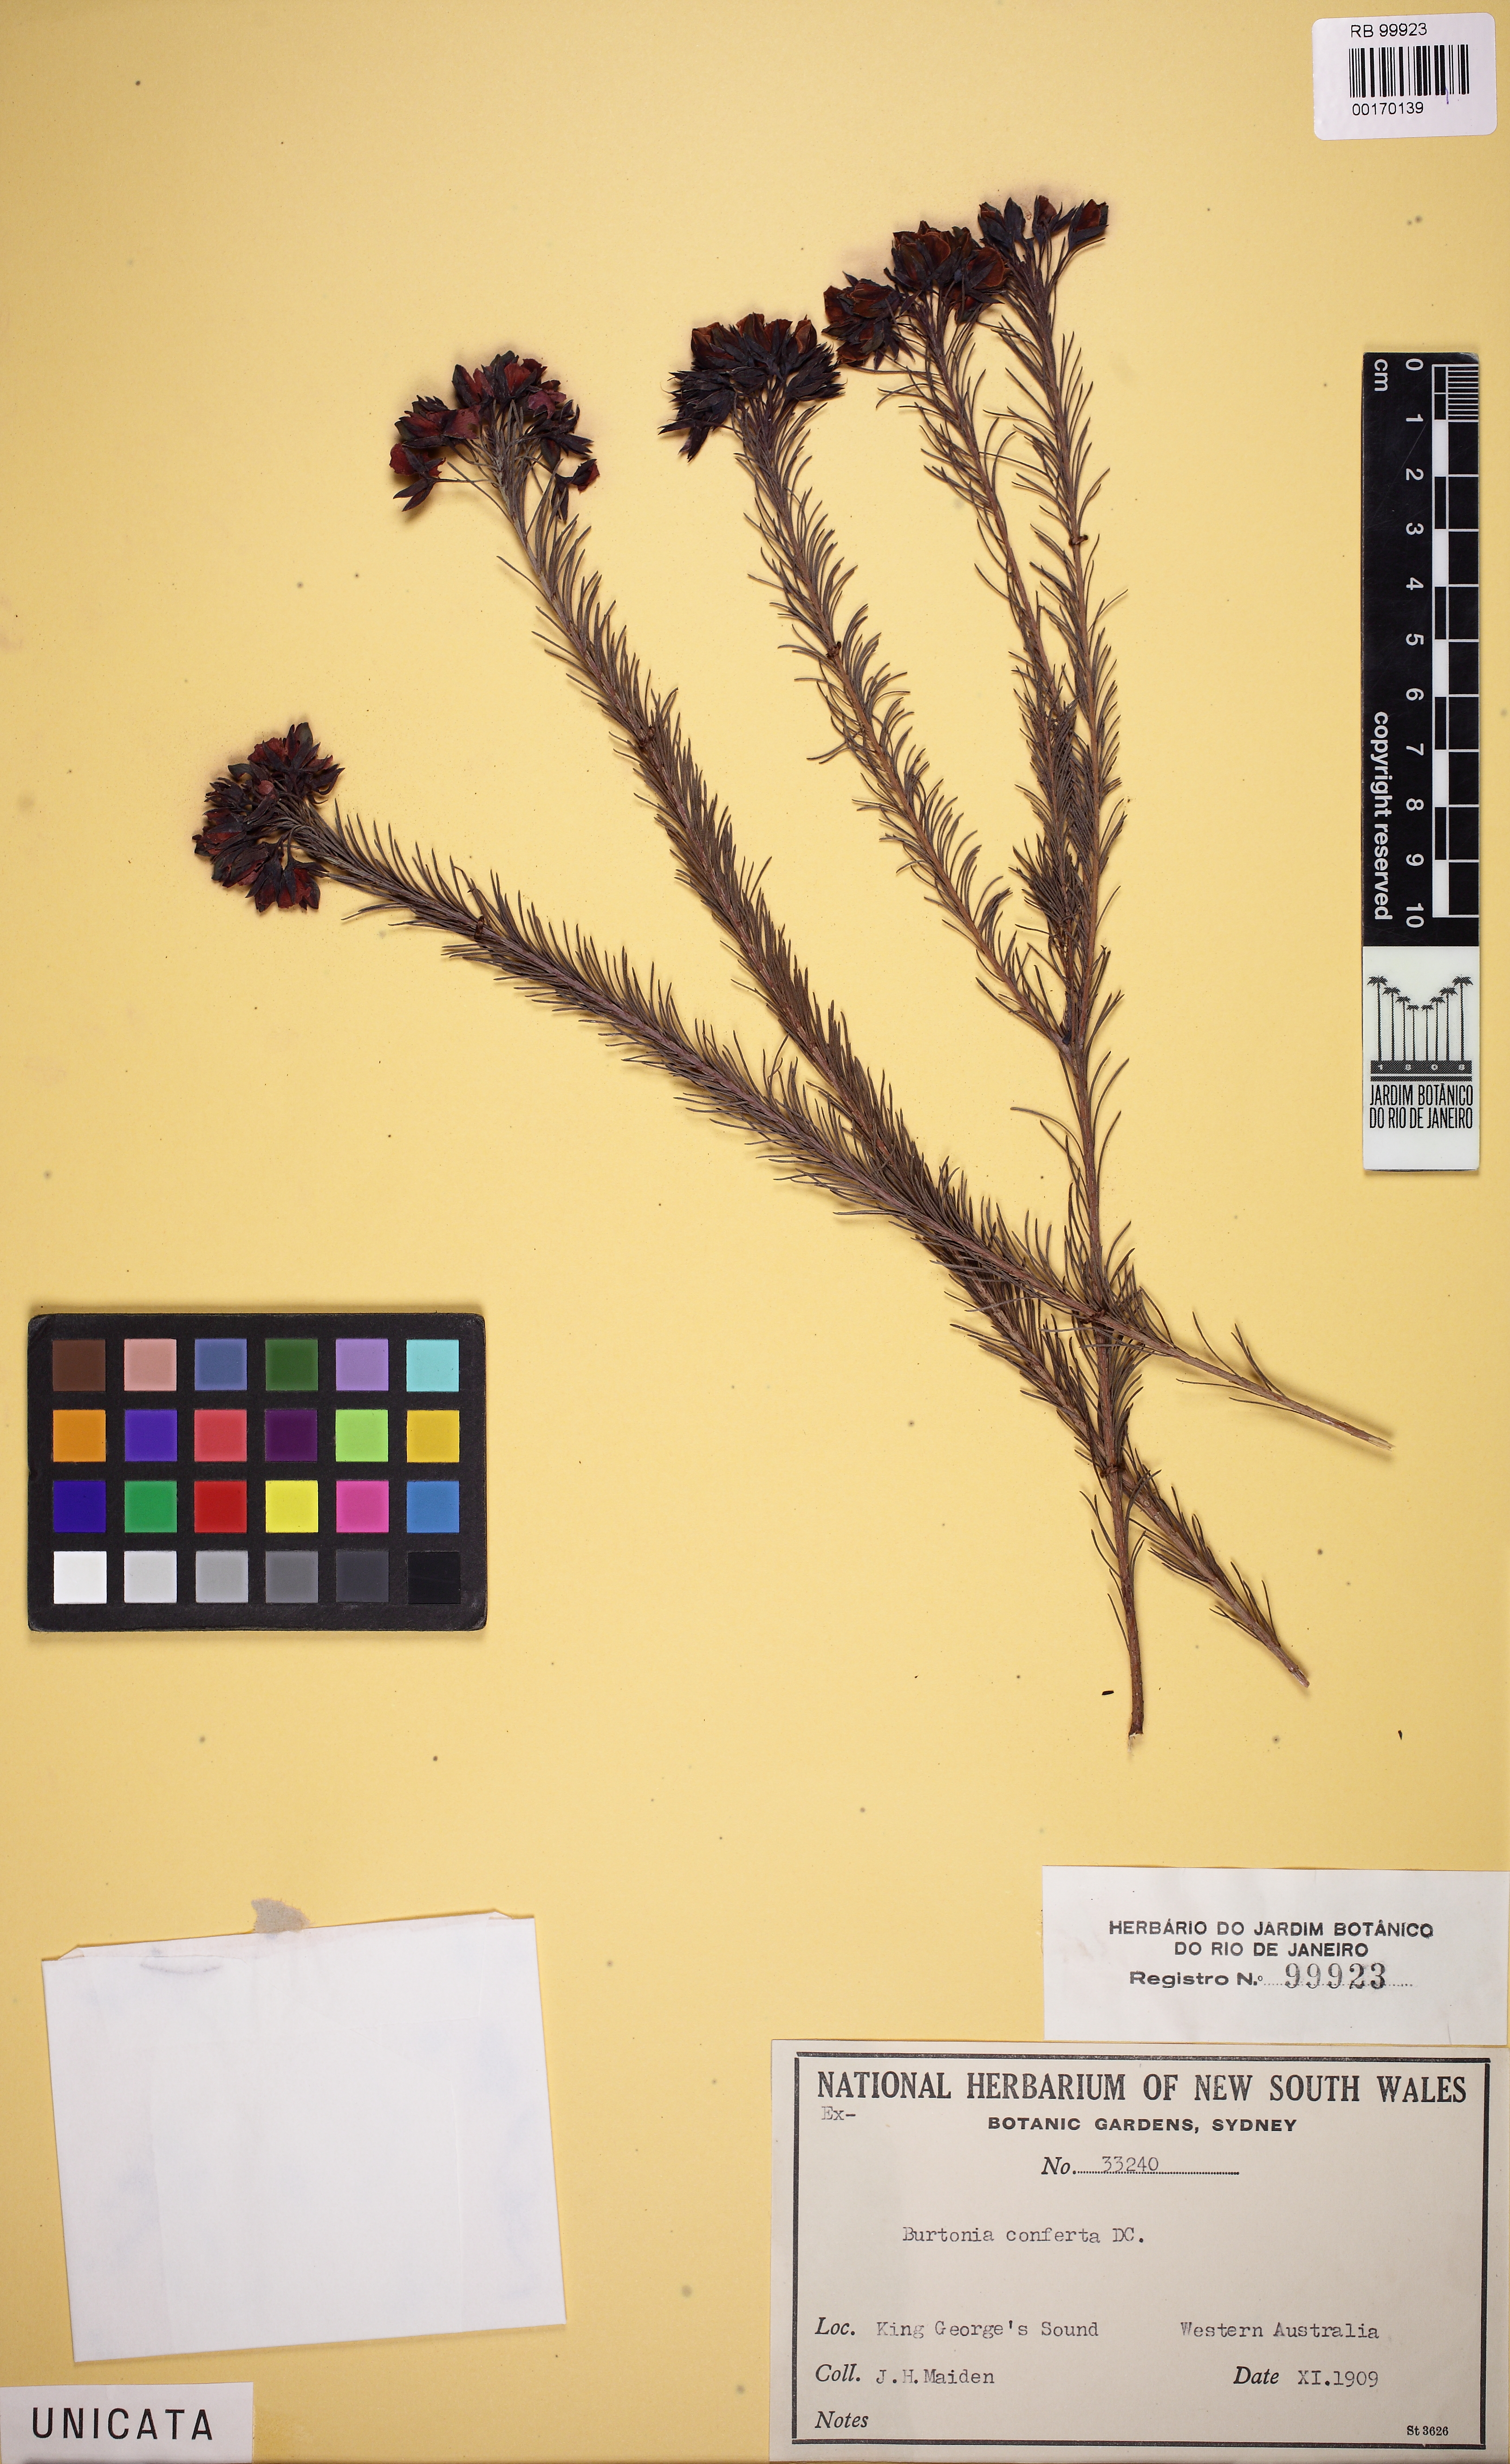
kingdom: Plantae
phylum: Tracheophyta
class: Magnoliopsida
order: Fabales
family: Fabaceae
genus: Gompholobium
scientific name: Gompholobium confertum
